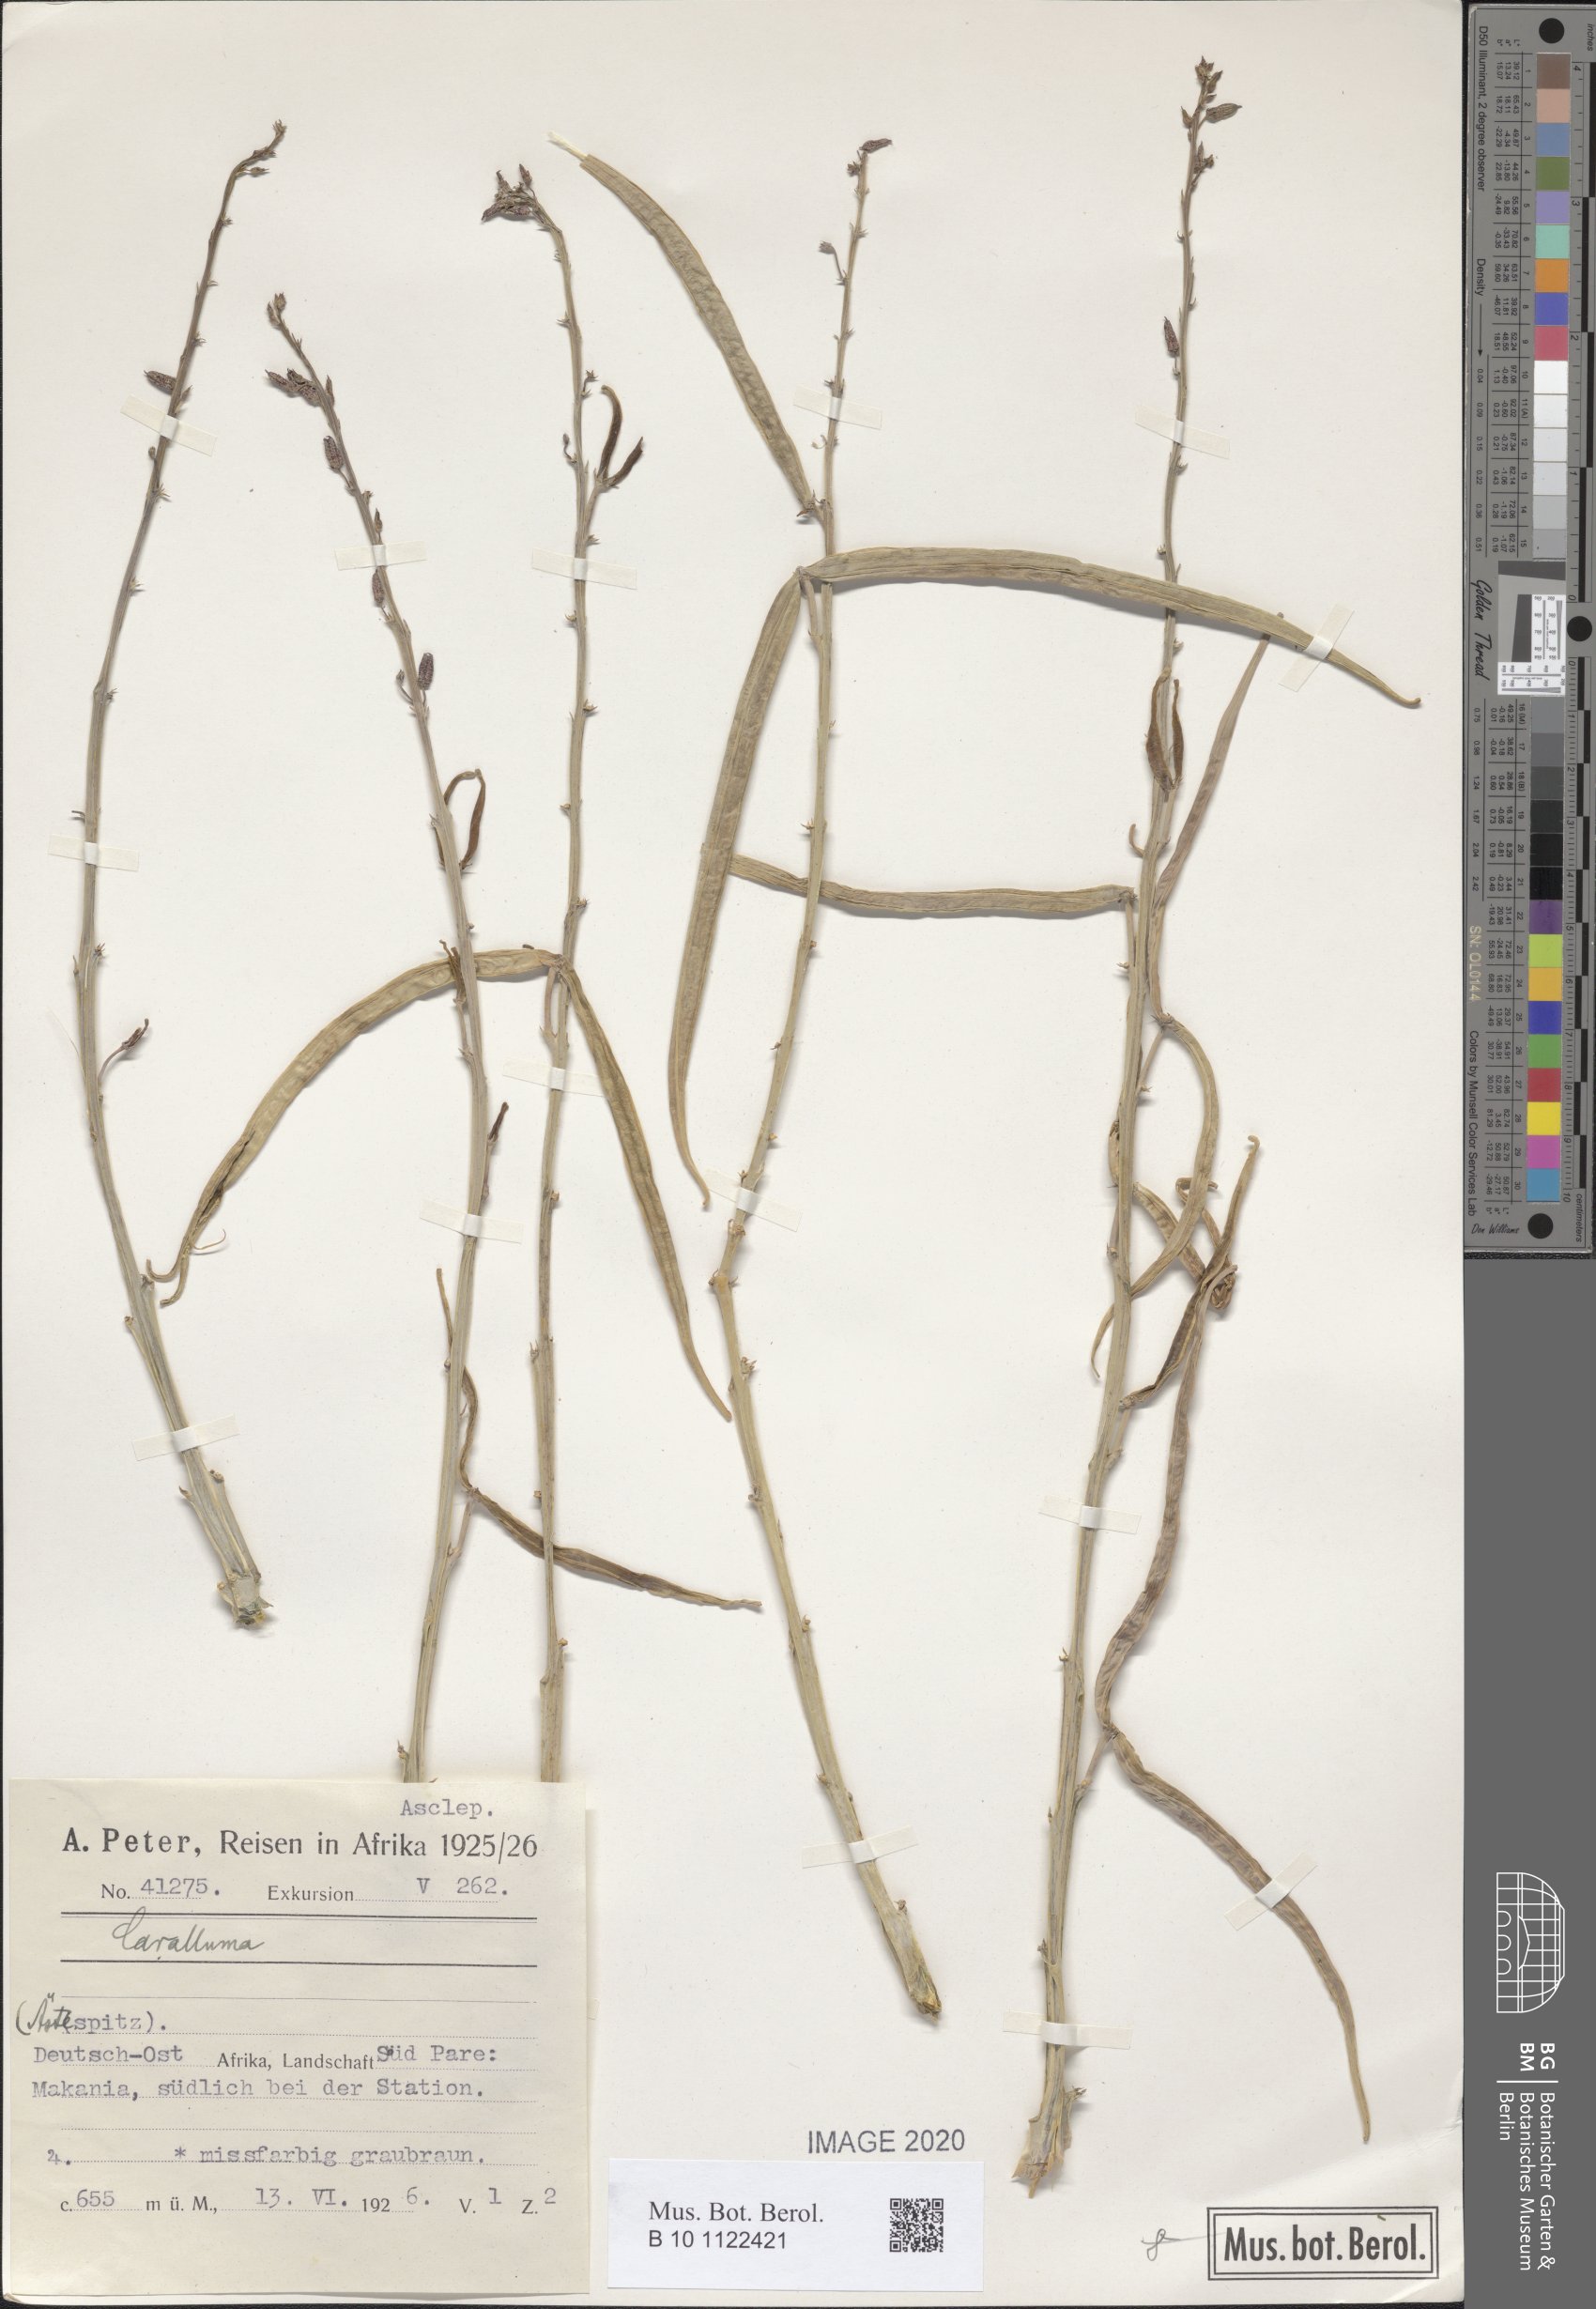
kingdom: Plantae
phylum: Tracheophyta
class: Magnoliopsida
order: Gentianales
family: Apocynaceae
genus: Caralluma
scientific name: Caralluma
